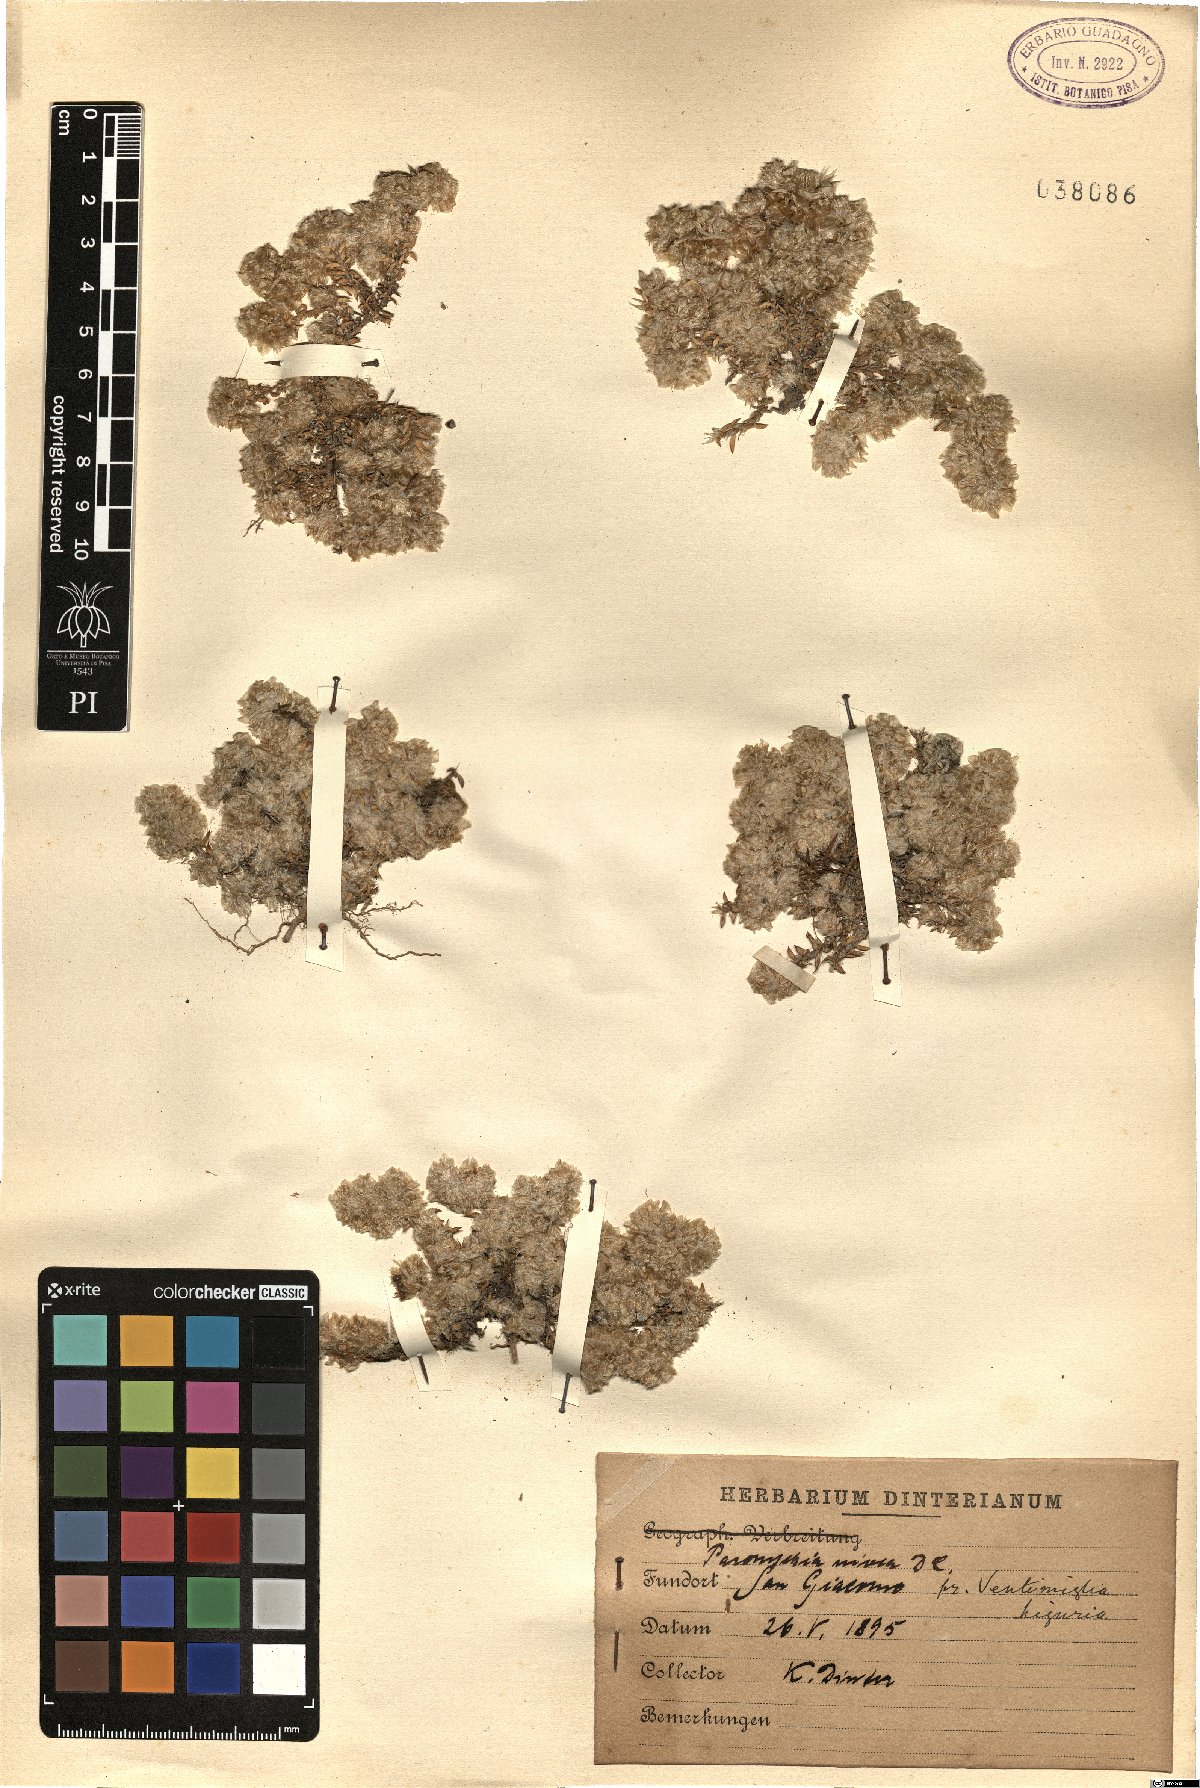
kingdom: Plantae
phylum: Tracheophyta
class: Magnoliopsida
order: Caryophyllales
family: Caryophyllaceae
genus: Paronychia
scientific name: Paronychia capitata
